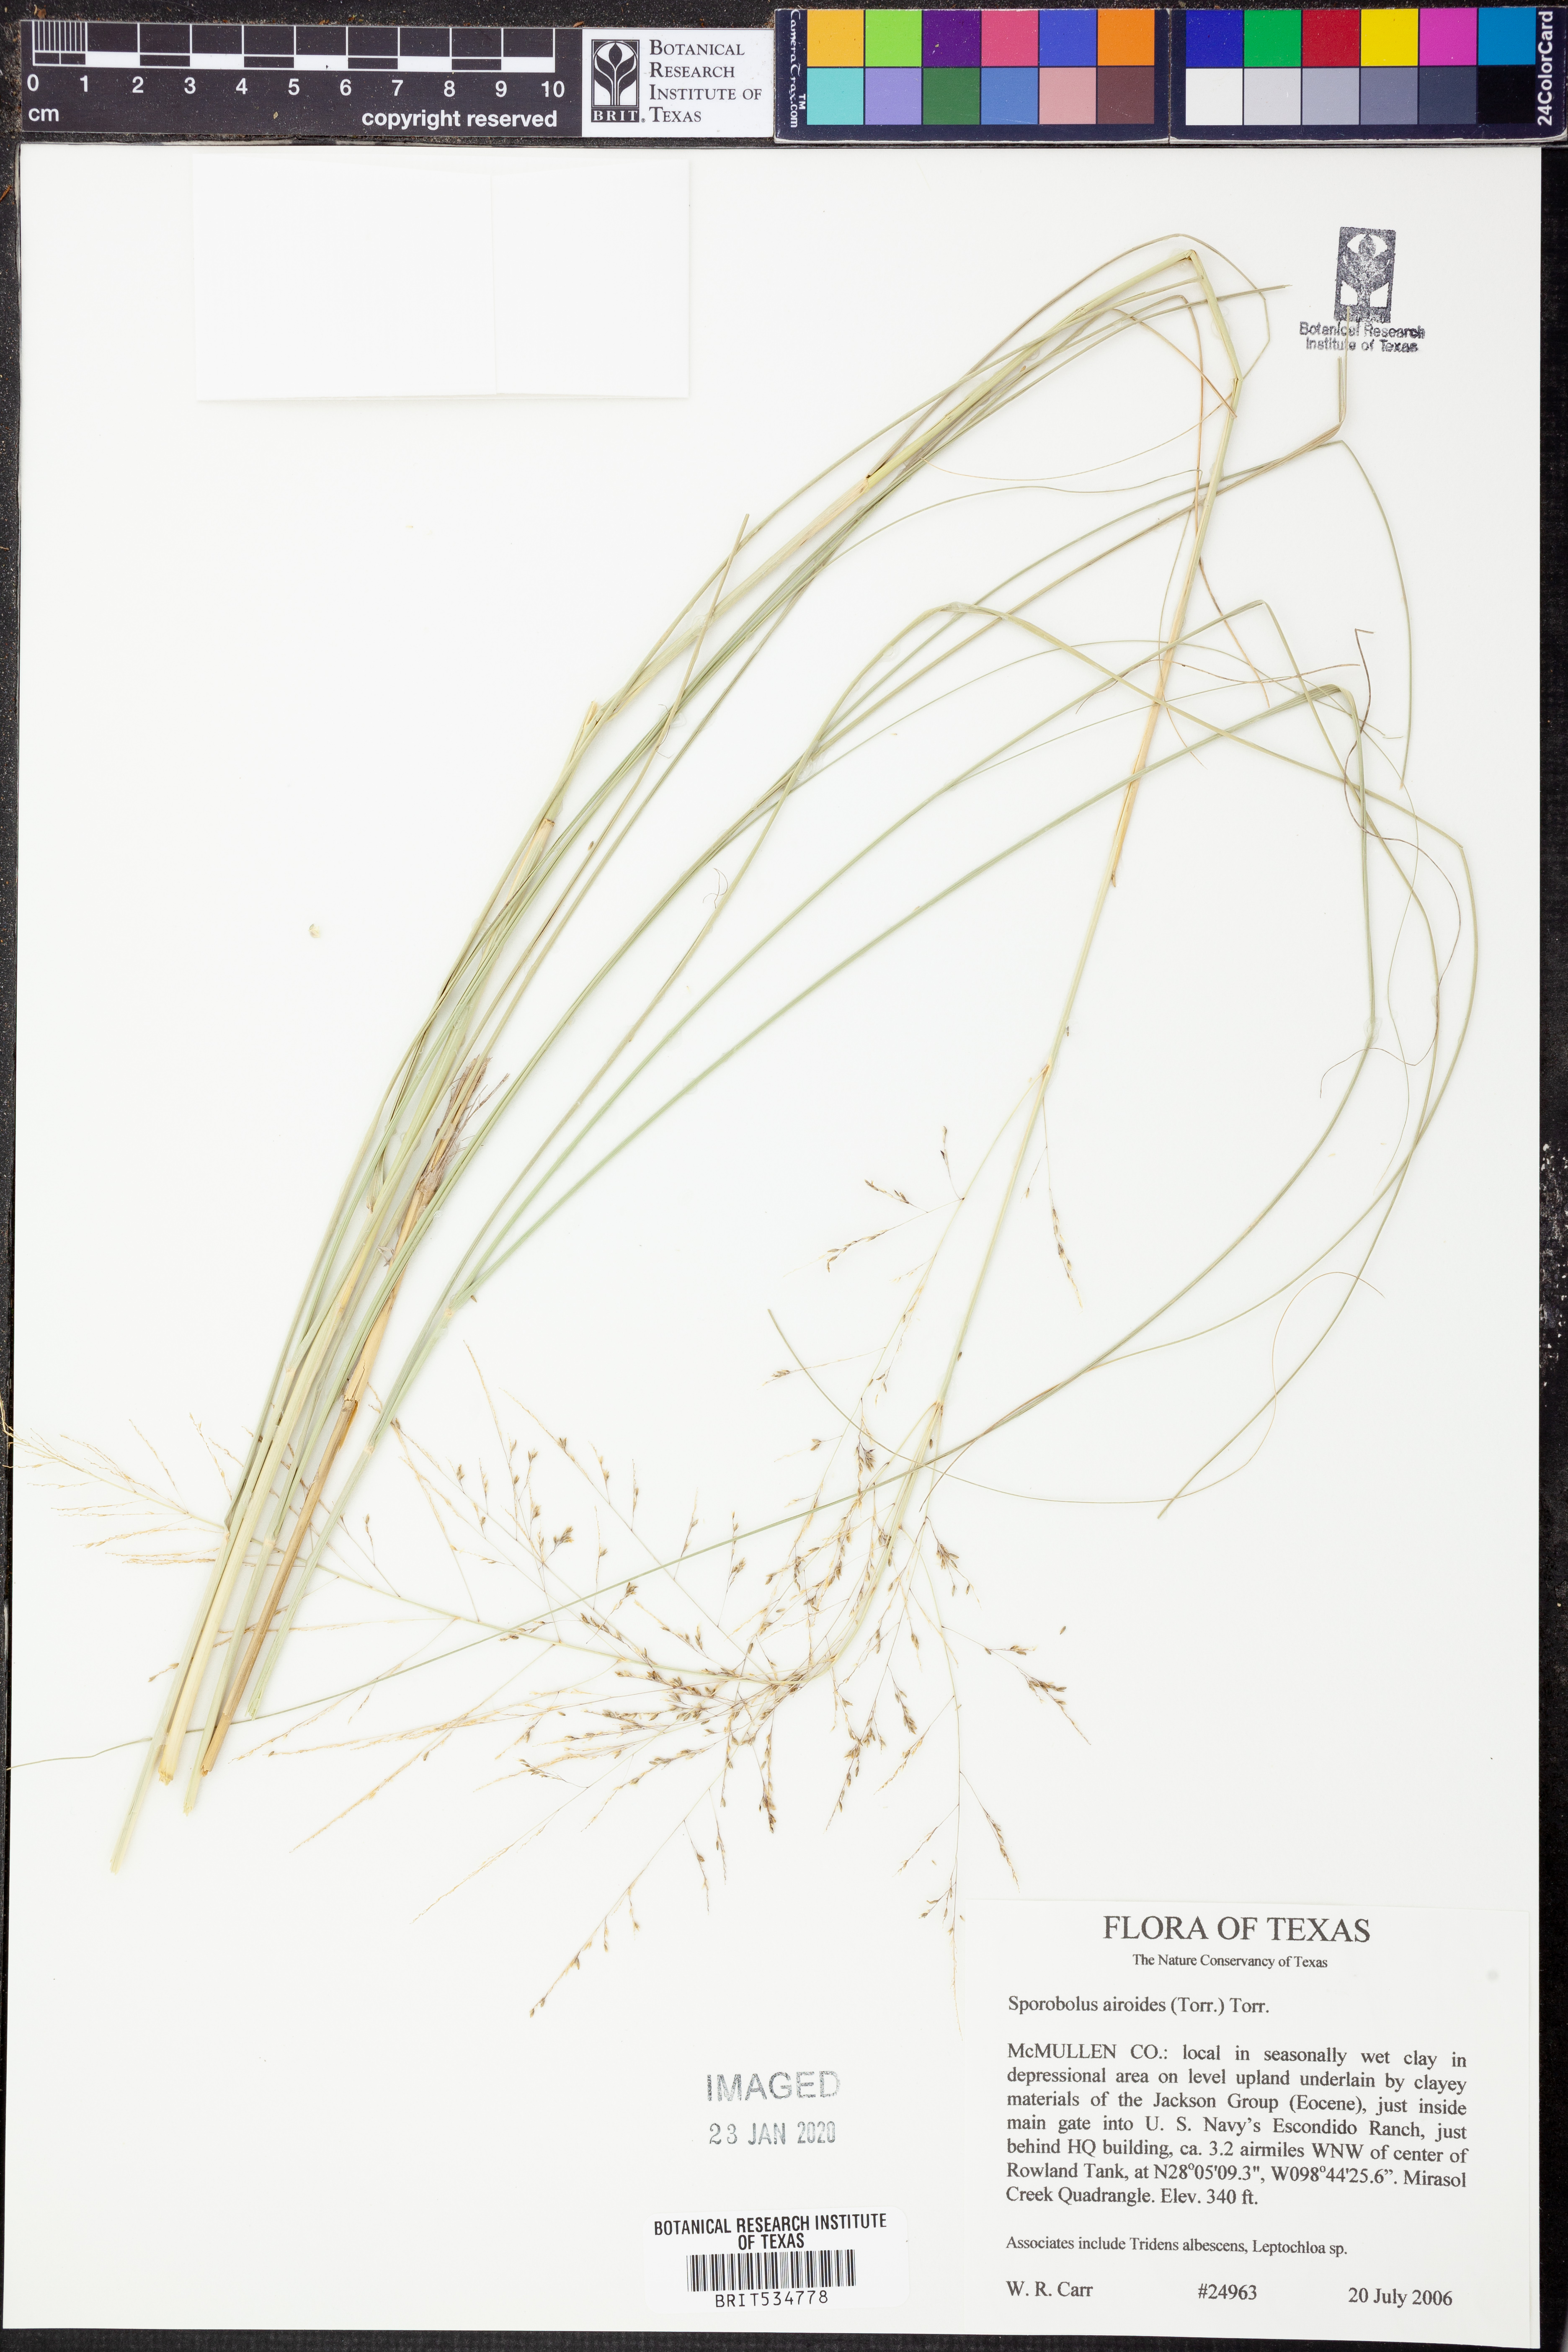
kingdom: Plantae
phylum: Tracheophyta
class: Liliopsida
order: Poales
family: Poaceae
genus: Sporobolus
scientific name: Sporobolus airoides
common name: Alkali sacaton
